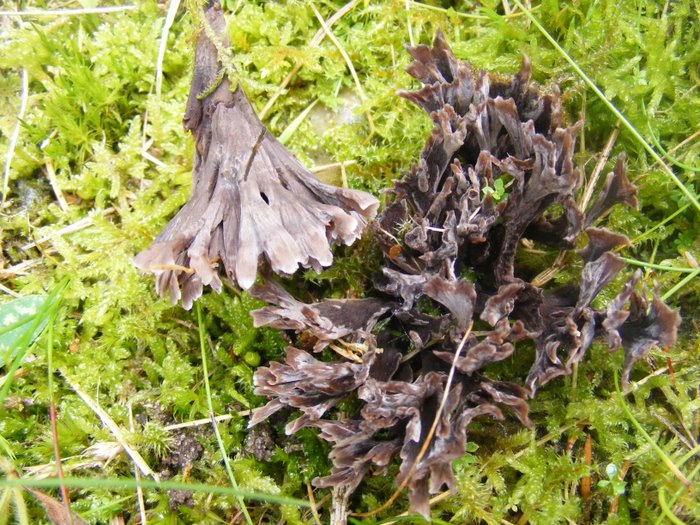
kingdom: Fungi
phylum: Basidiomycota
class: Agaricomycetes
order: Thelephorales
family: Thelephoraceae
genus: Thelephora
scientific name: Thelephora palmata
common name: grenet frynsesvamp
